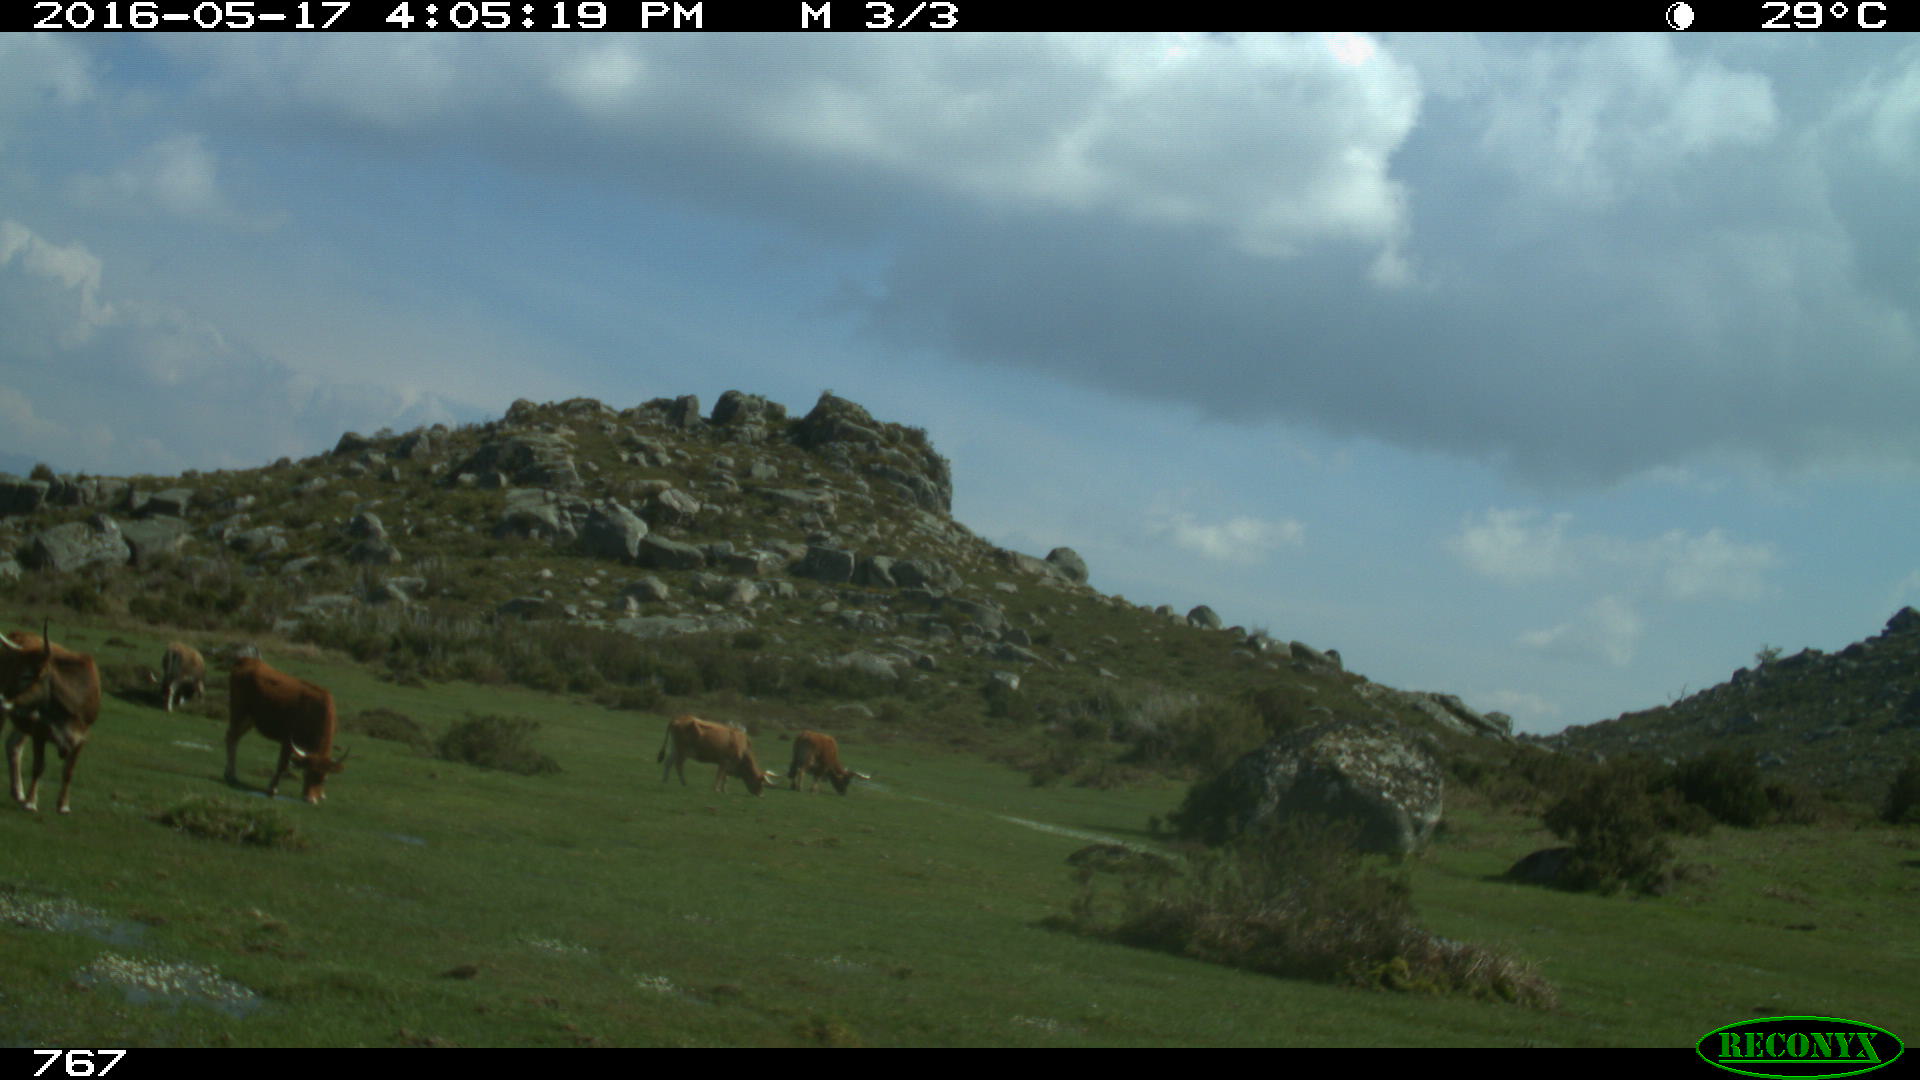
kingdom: Animalia
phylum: Chordata
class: Mammalia
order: Artiodactyla
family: Bovidae
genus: Bos
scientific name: Bos taurus
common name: Domesticated cattle
